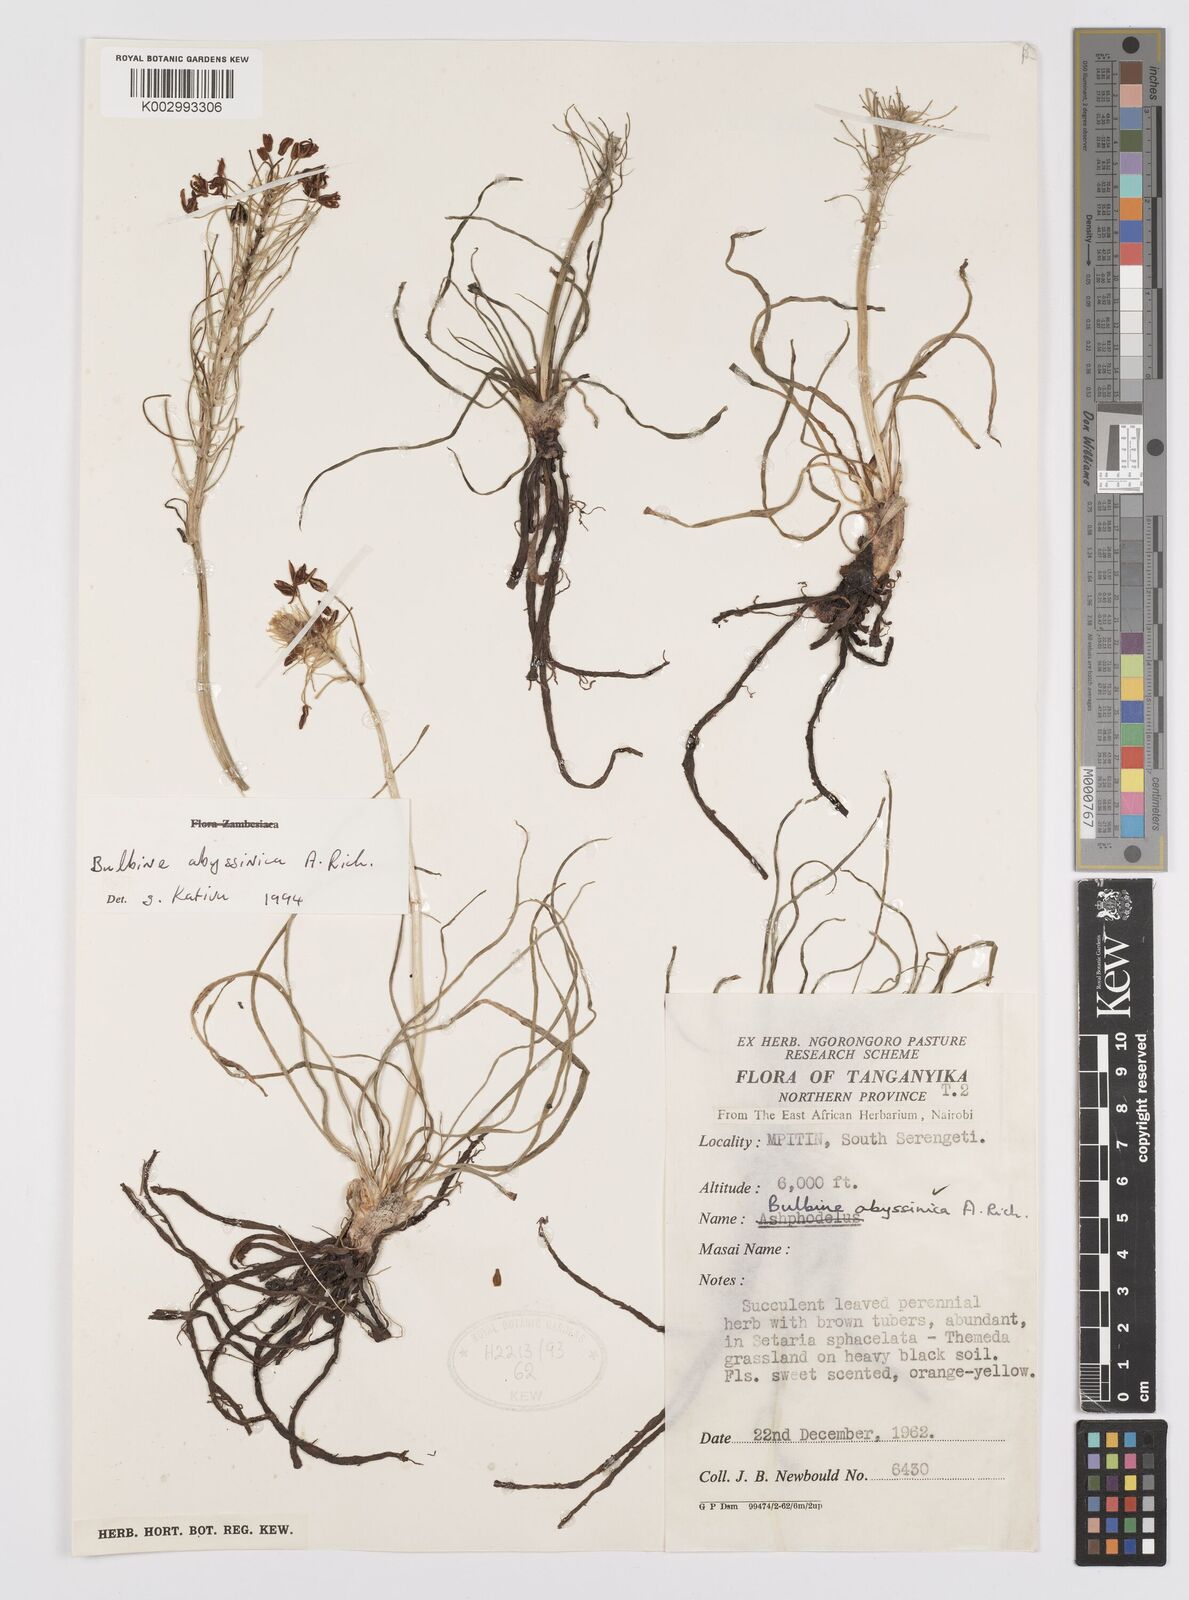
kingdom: Plantae
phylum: Tracheophyta
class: Liliopsida
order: Asparagales
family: Asphodelaceae
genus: Bulbine
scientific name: Bulbine abyssinica
